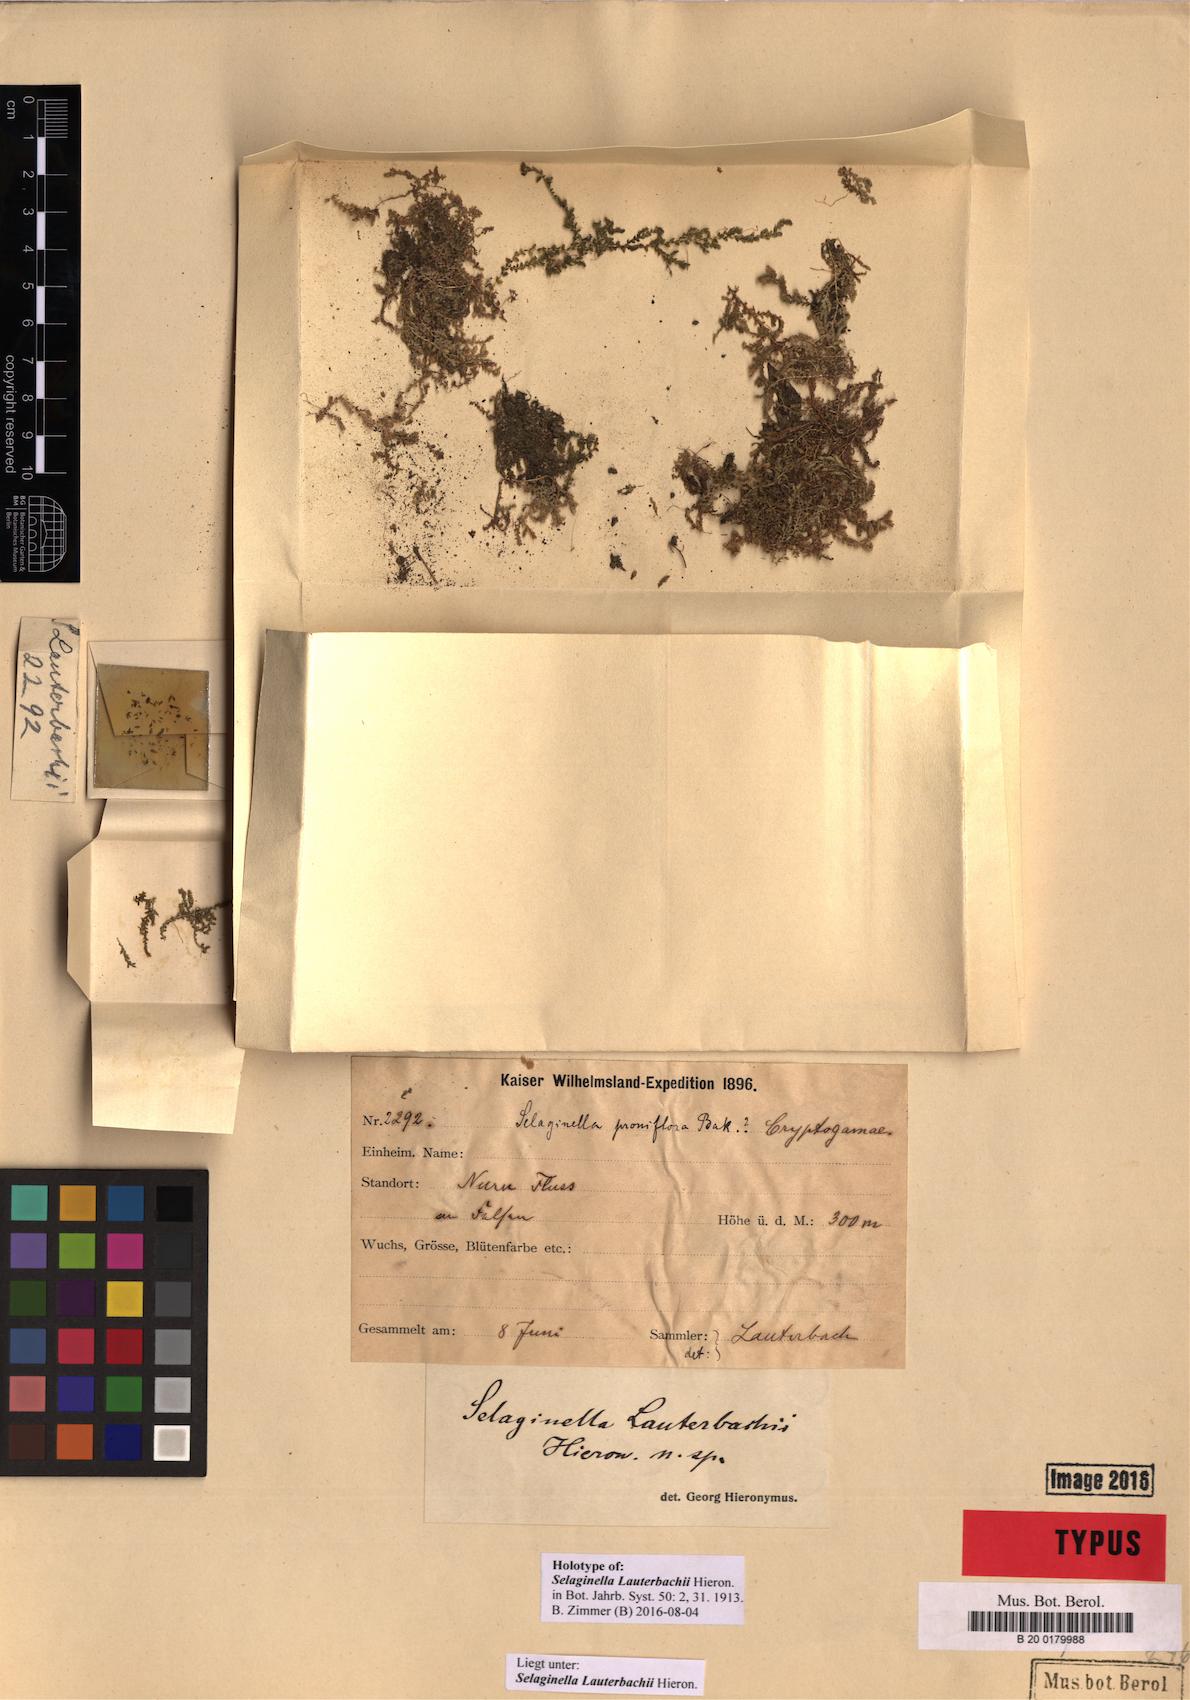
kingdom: Plantae
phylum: Tracheophyta
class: Lycopodiopsida
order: Selaginellales
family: Selaginellaceae
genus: Selaginella
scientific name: Selaginella lauterbachii
